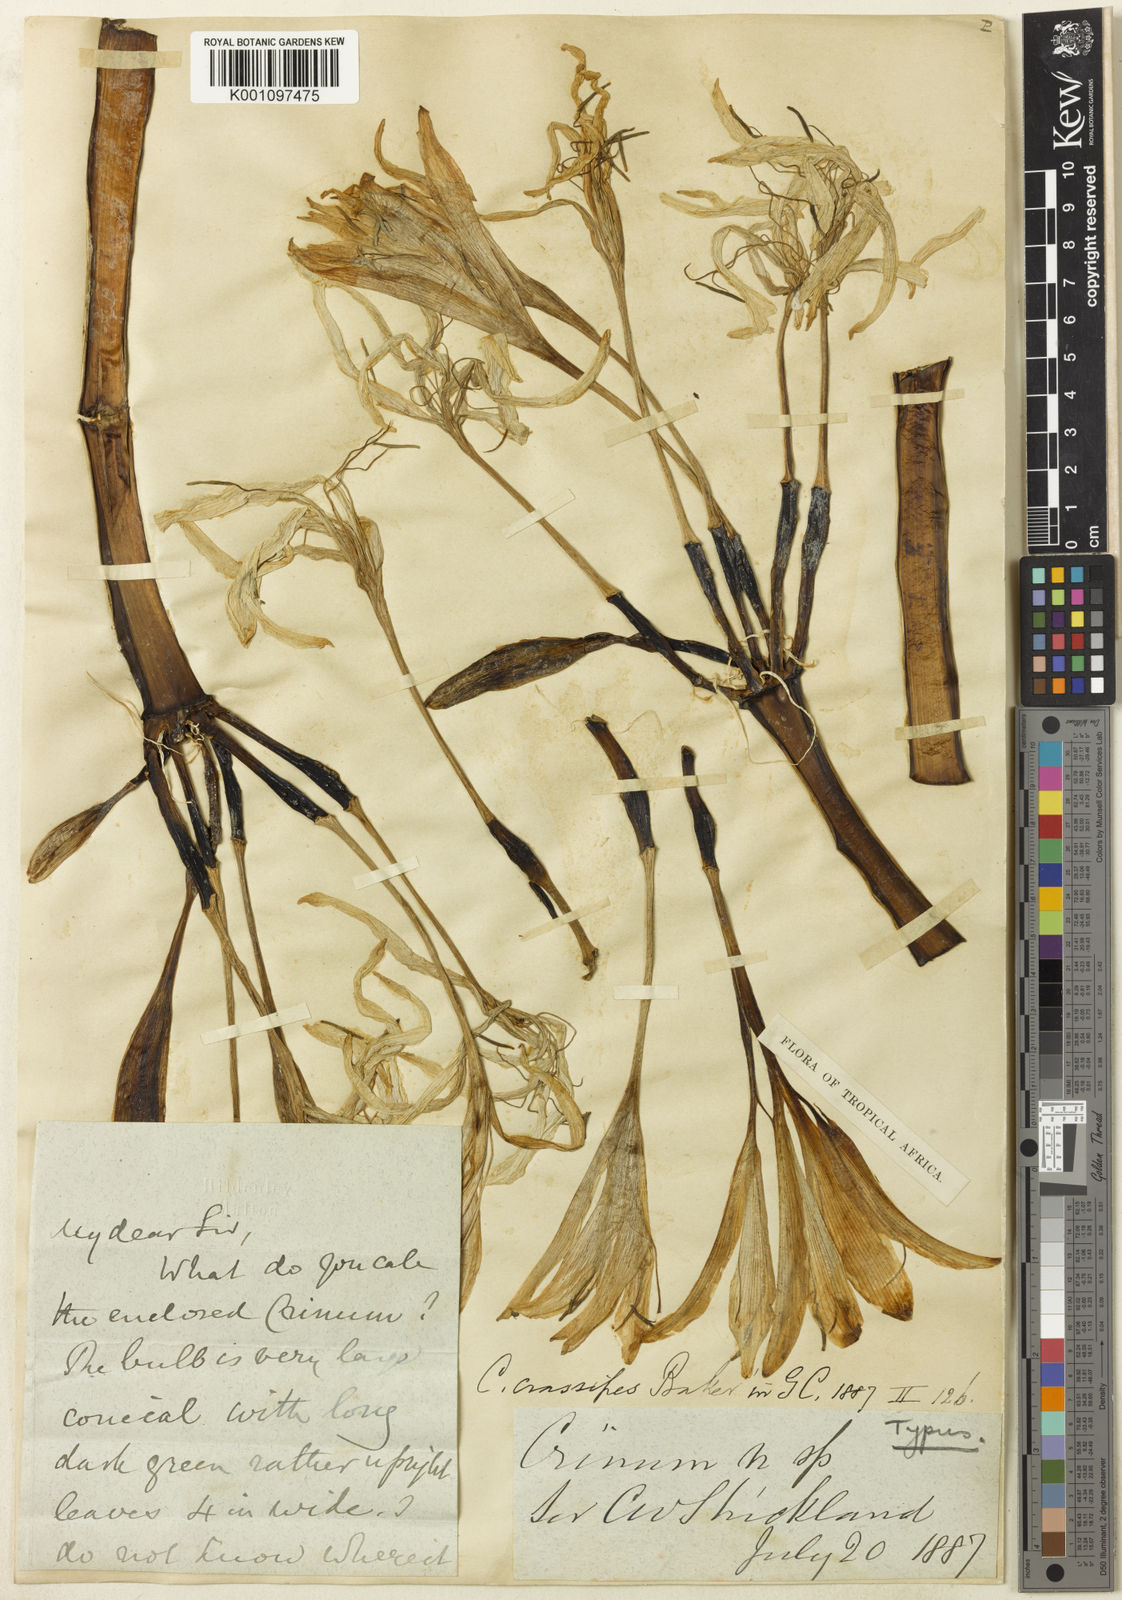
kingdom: Plantae
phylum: Tracheophyta
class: Liliopsida
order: Asparagales
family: Amaryllidaceae
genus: Crinum
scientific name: Crinum variabile
